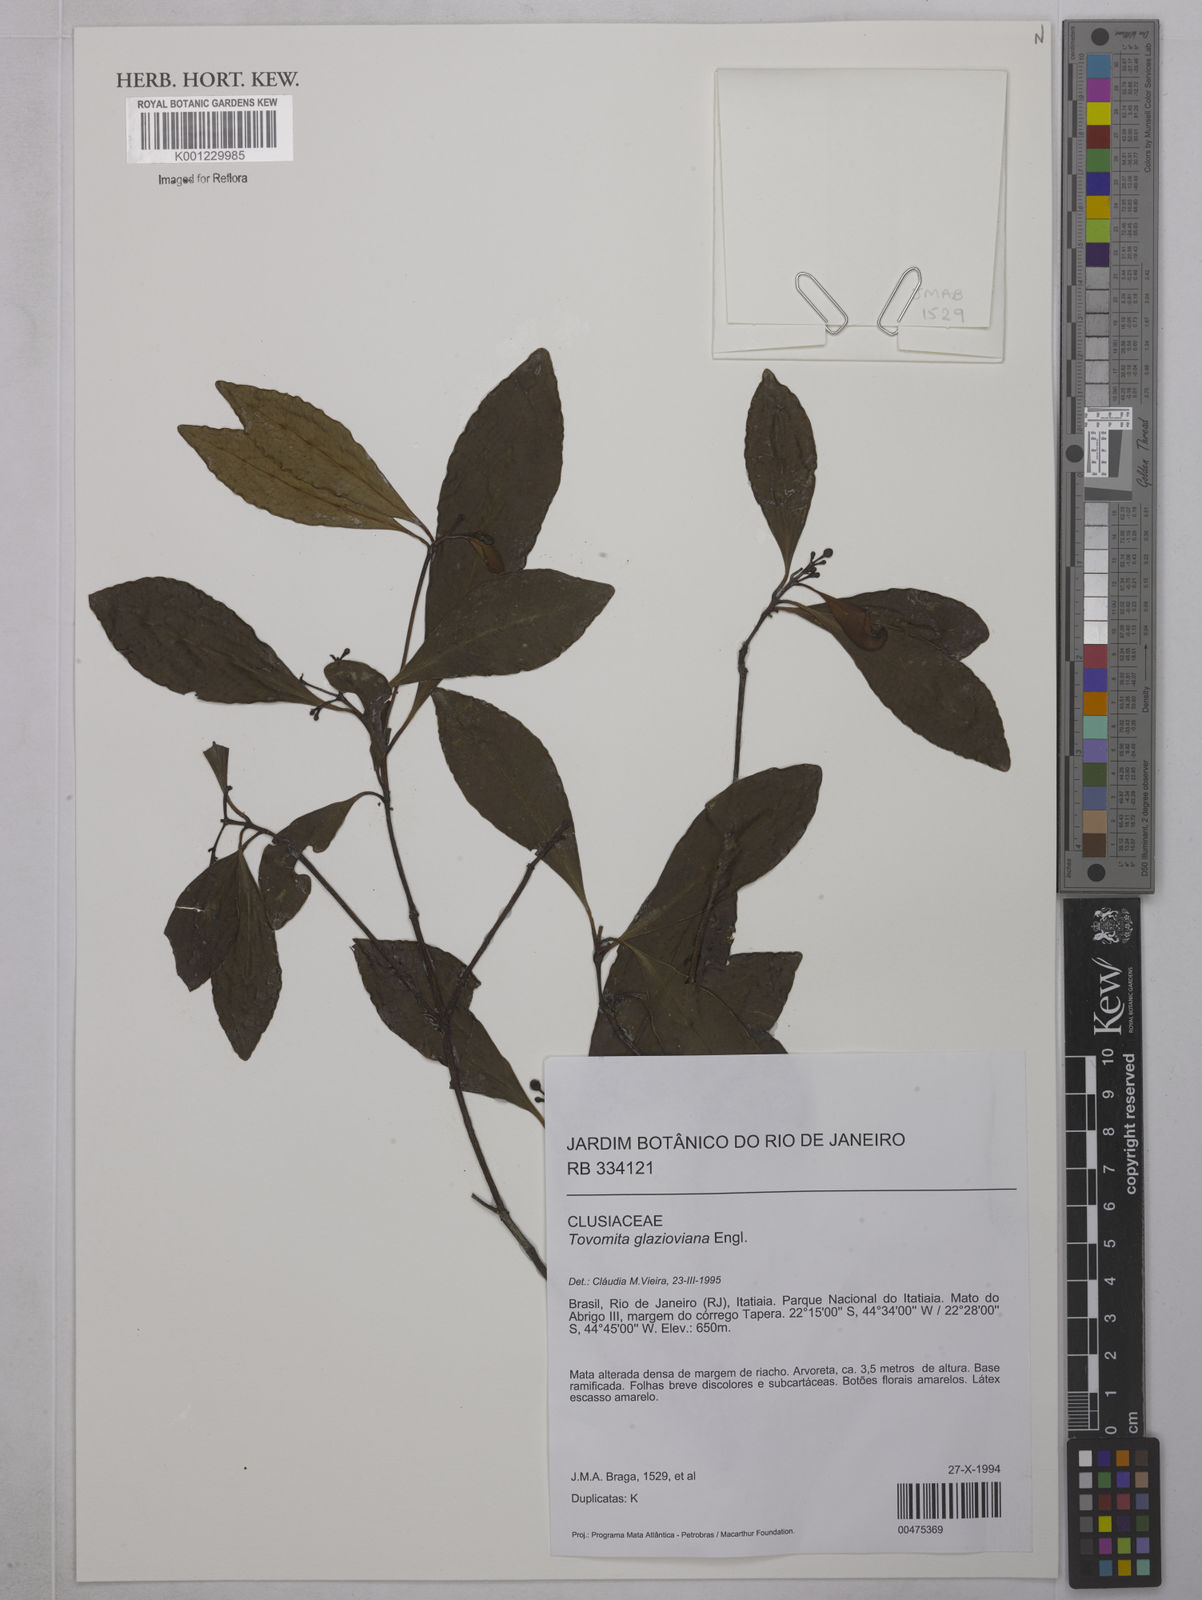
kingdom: Plantae
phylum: Tracheophyta
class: Magnoliopsida
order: Malpighiales
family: Clusiaceae
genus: Tovomita
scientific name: Tovomita glazioviana
